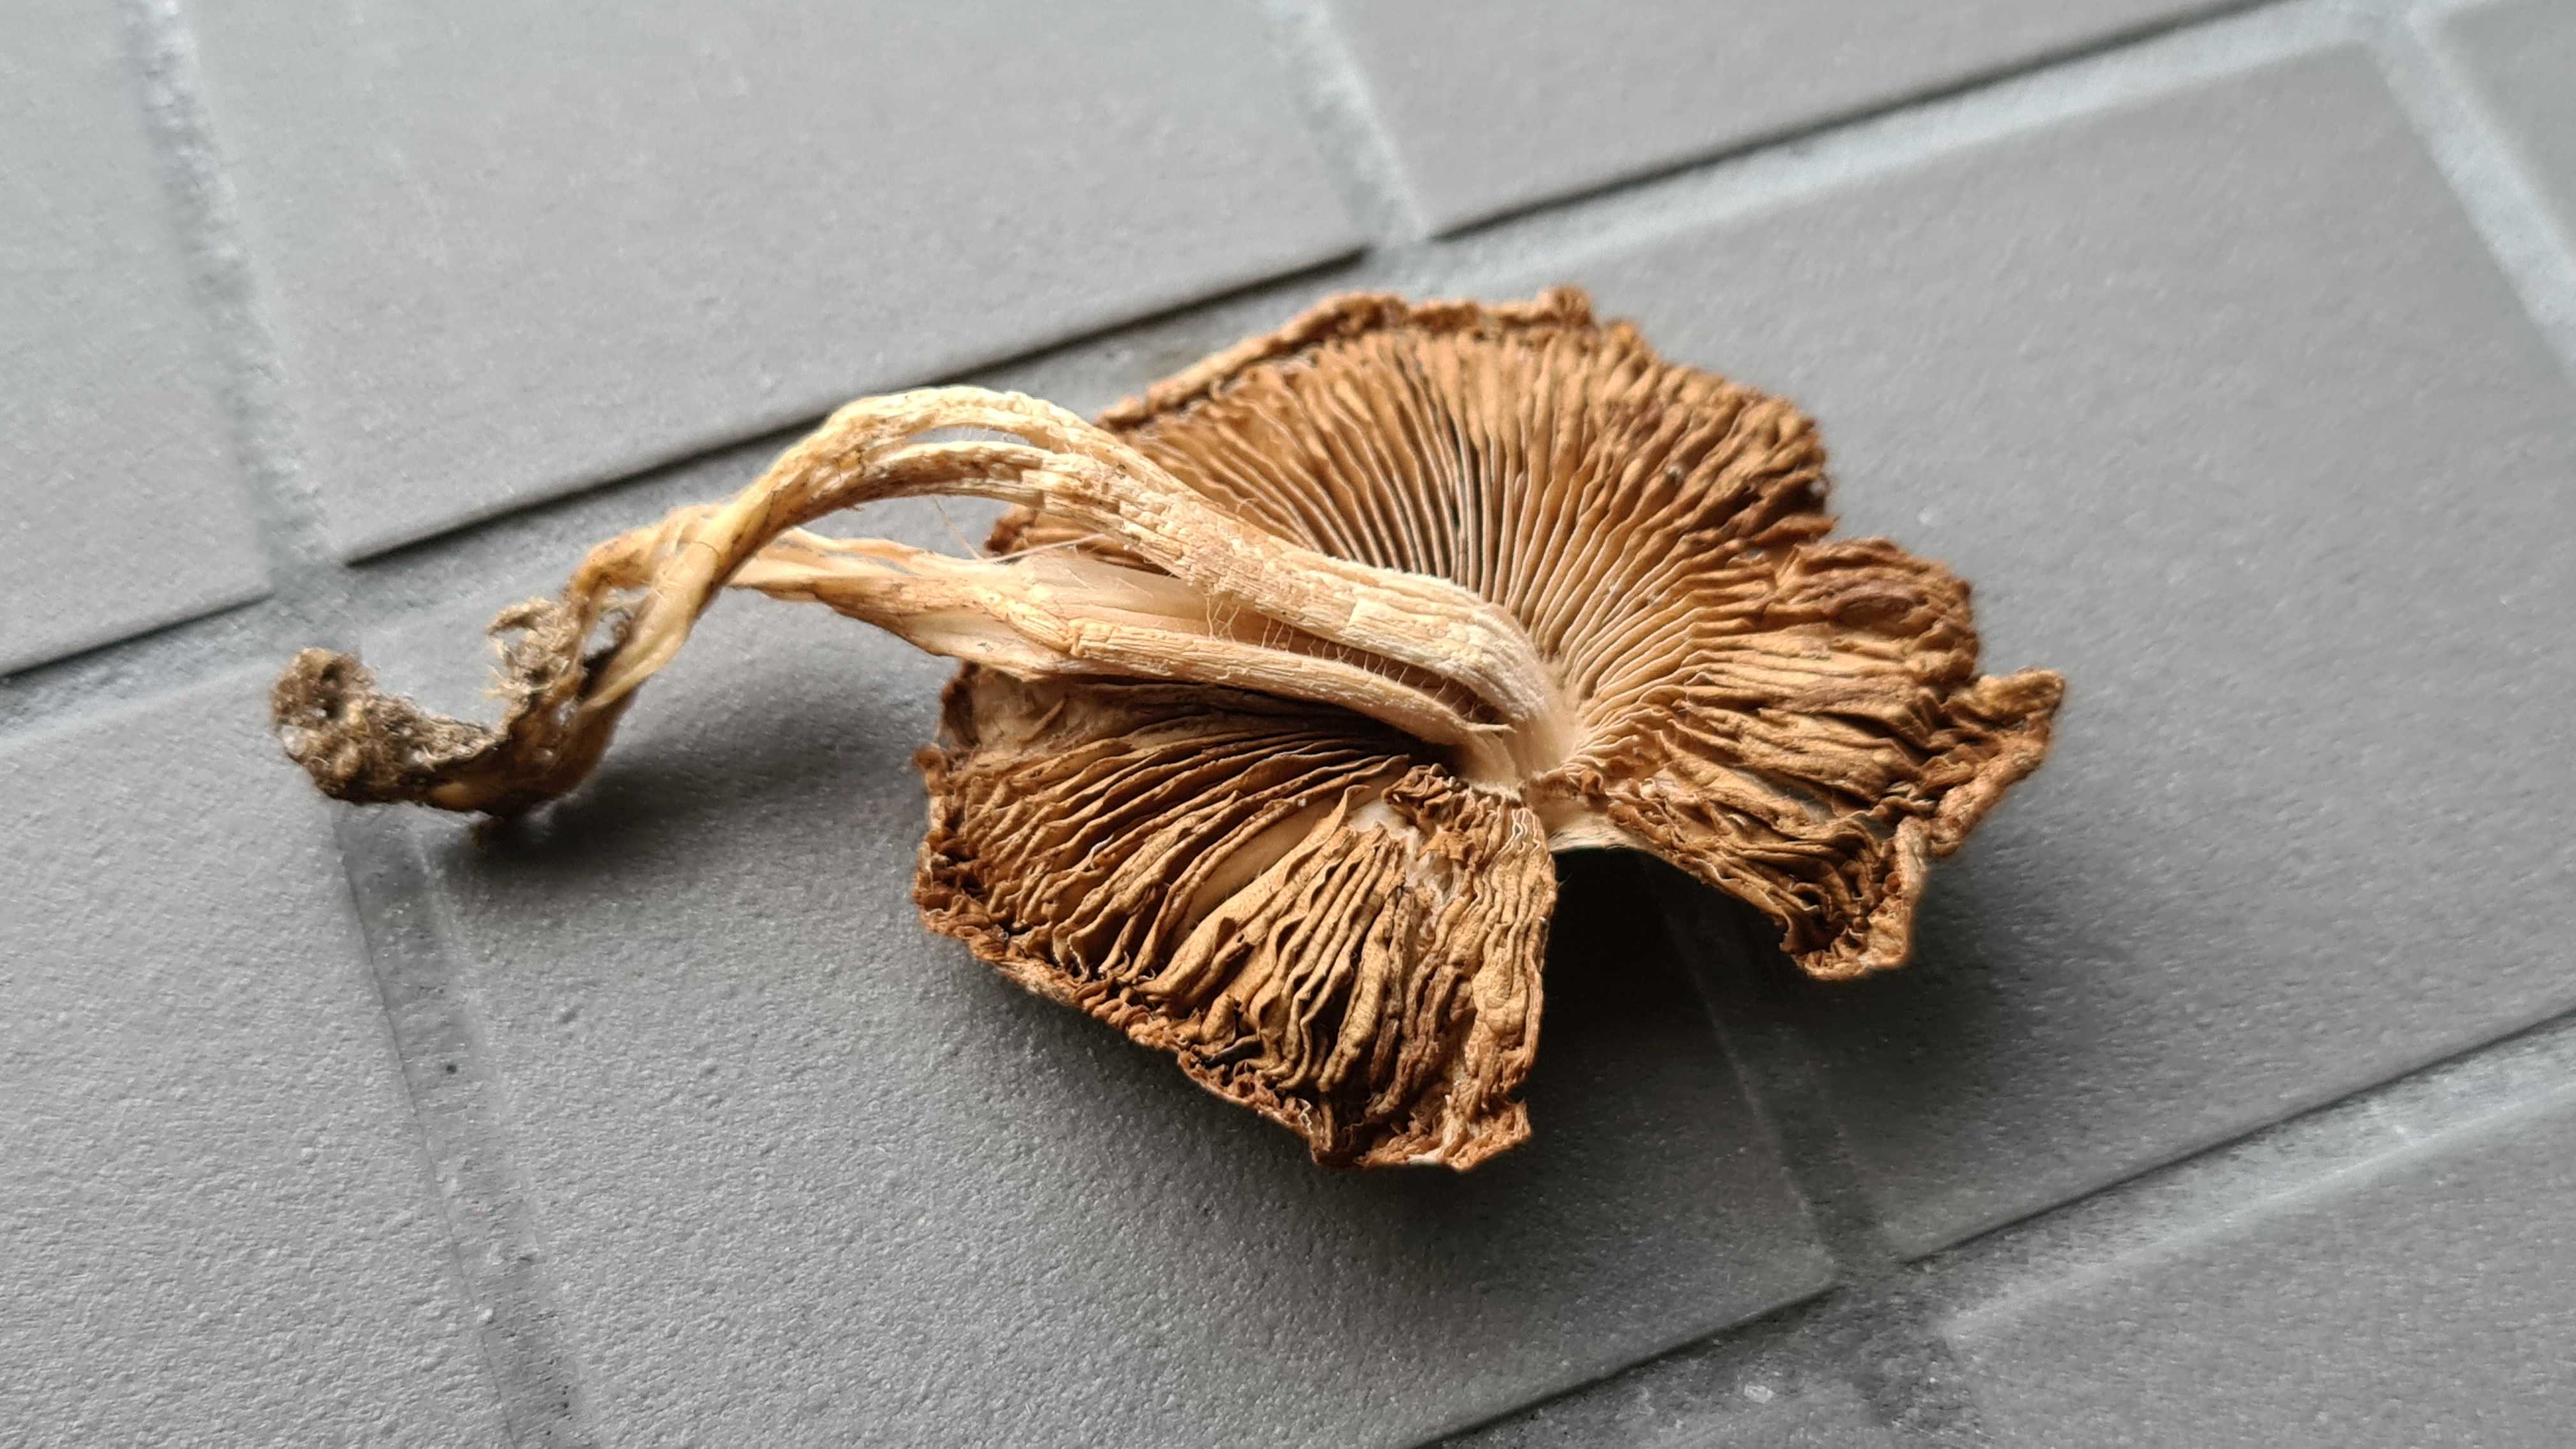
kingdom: Fungi
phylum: Basidiomycota
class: Agaricomycetes
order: Agaricales
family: Inocybaceae
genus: Pseudosperma
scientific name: Pseudosperma
